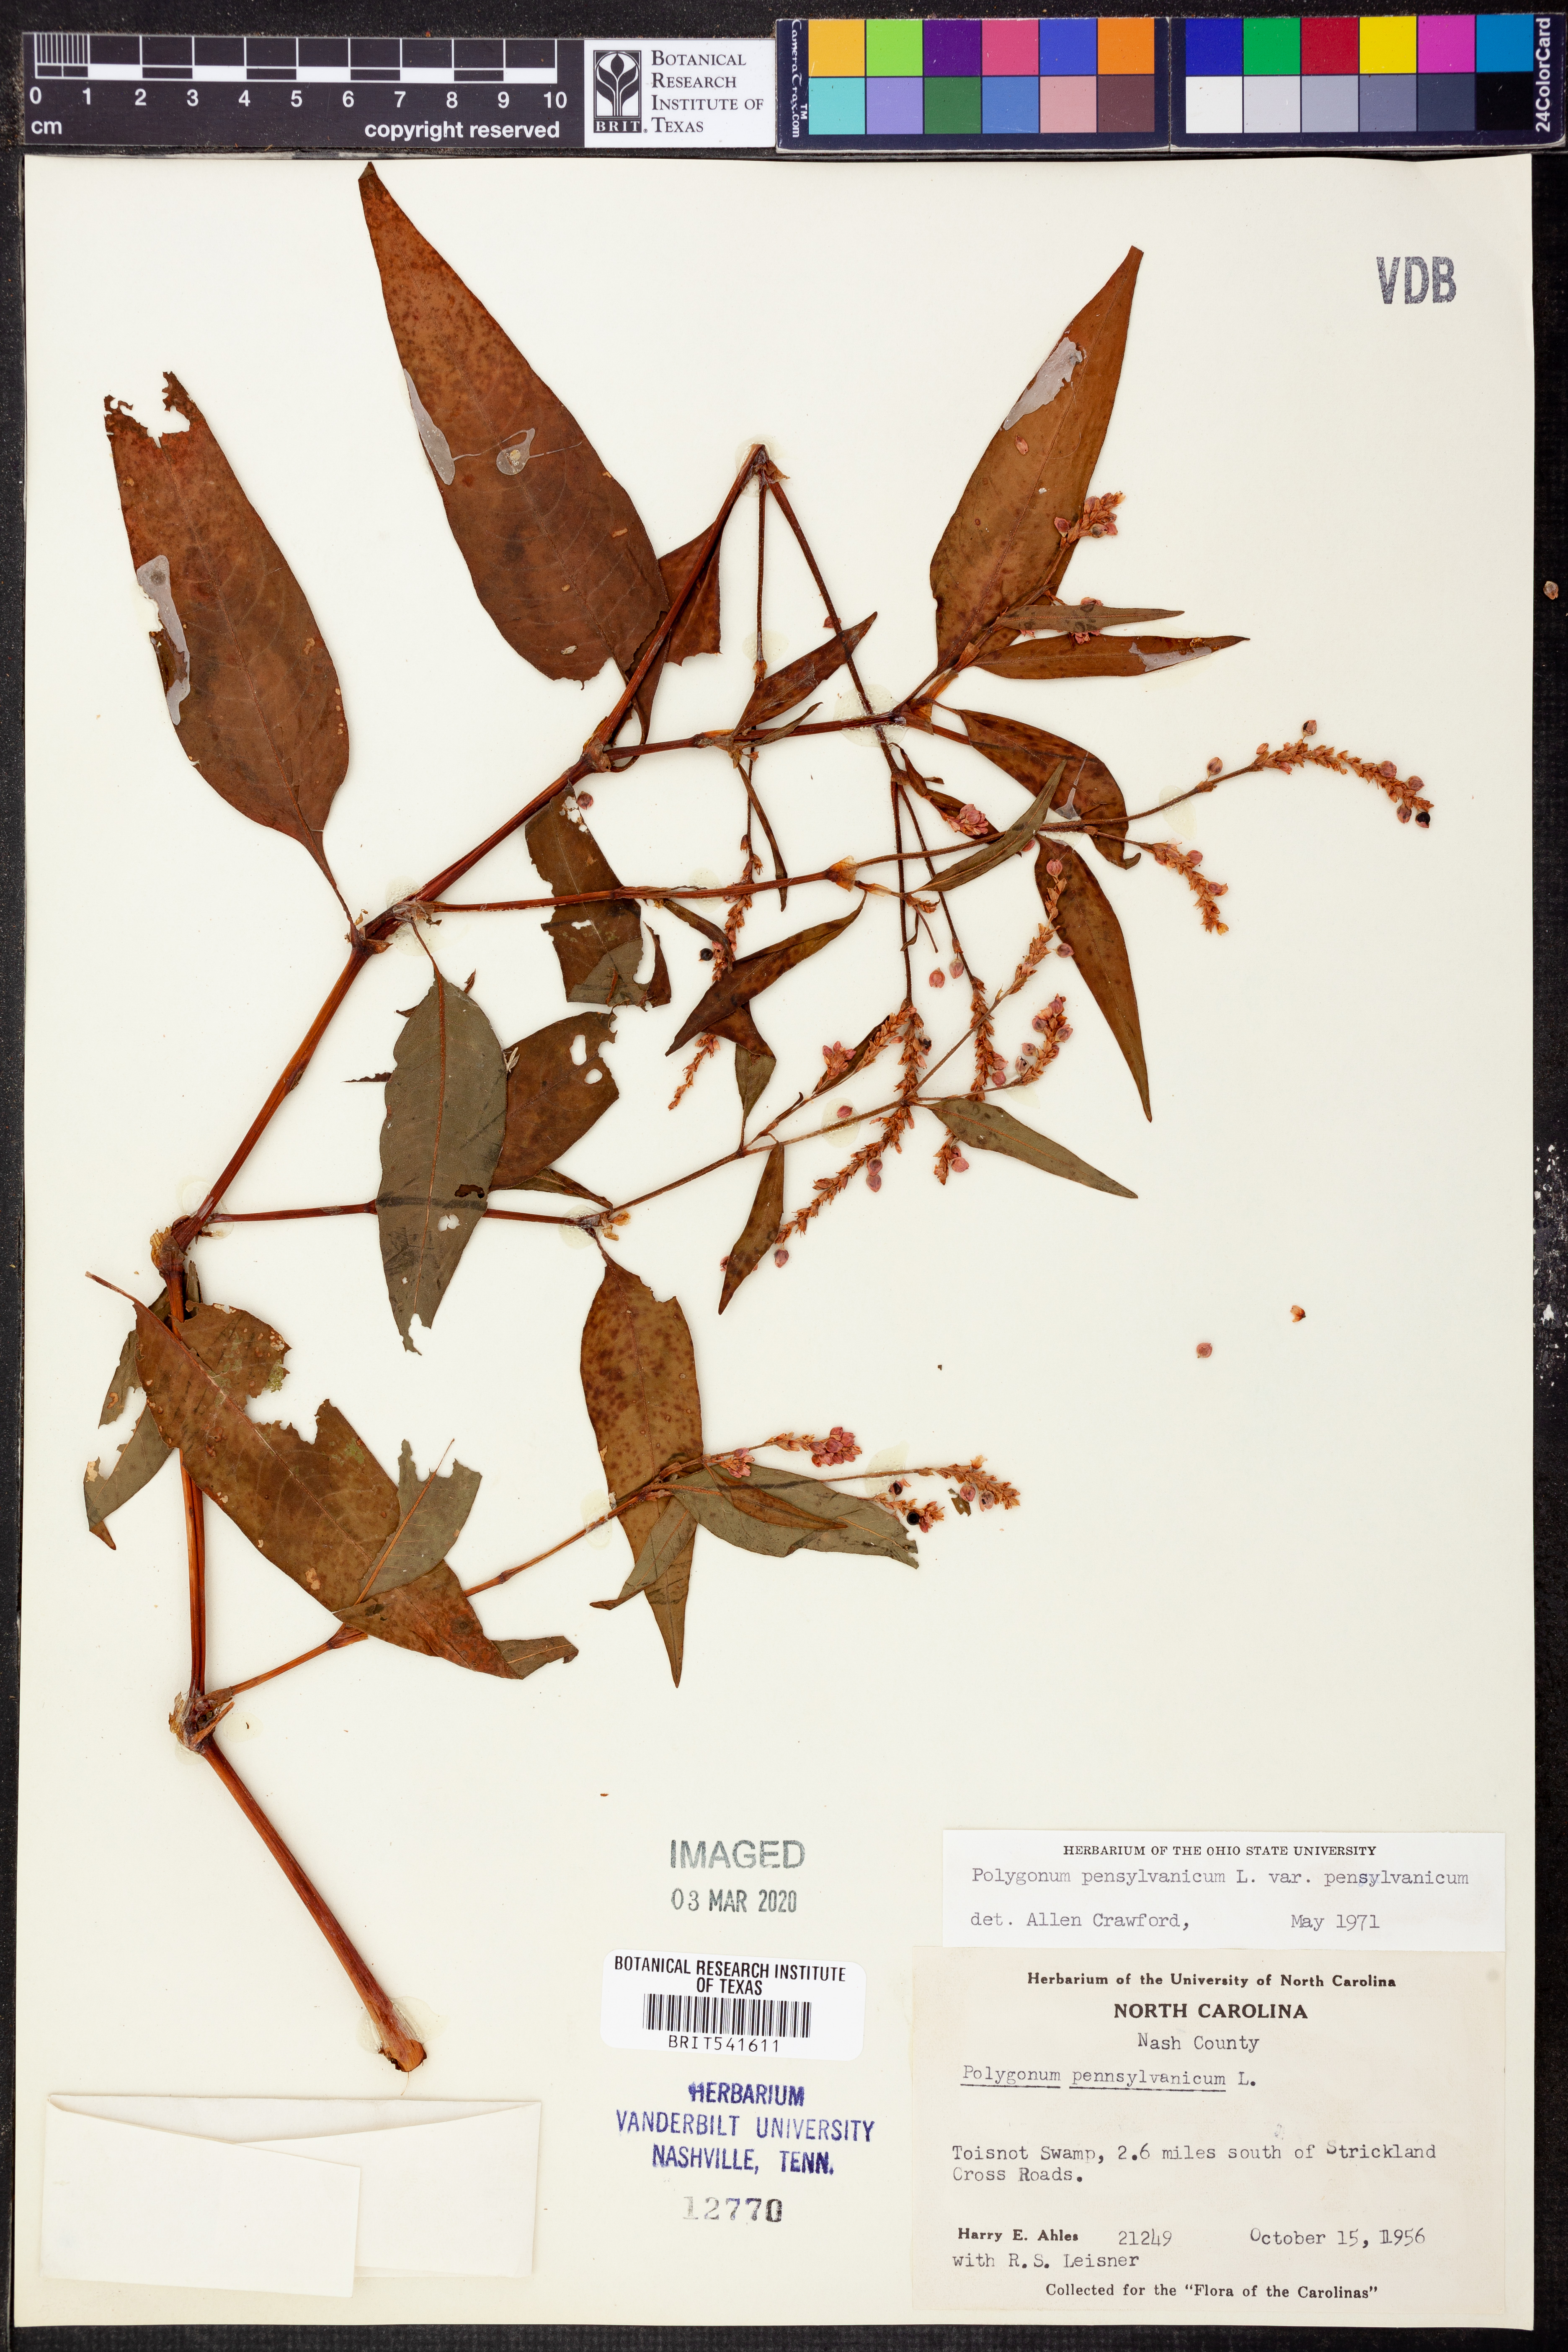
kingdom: Plantae
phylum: Tracheophyta
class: Magnoliopsida
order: Caryophyllales
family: Polygonaceae
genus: Polygonum
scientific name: Polygonum pensylvanicum
